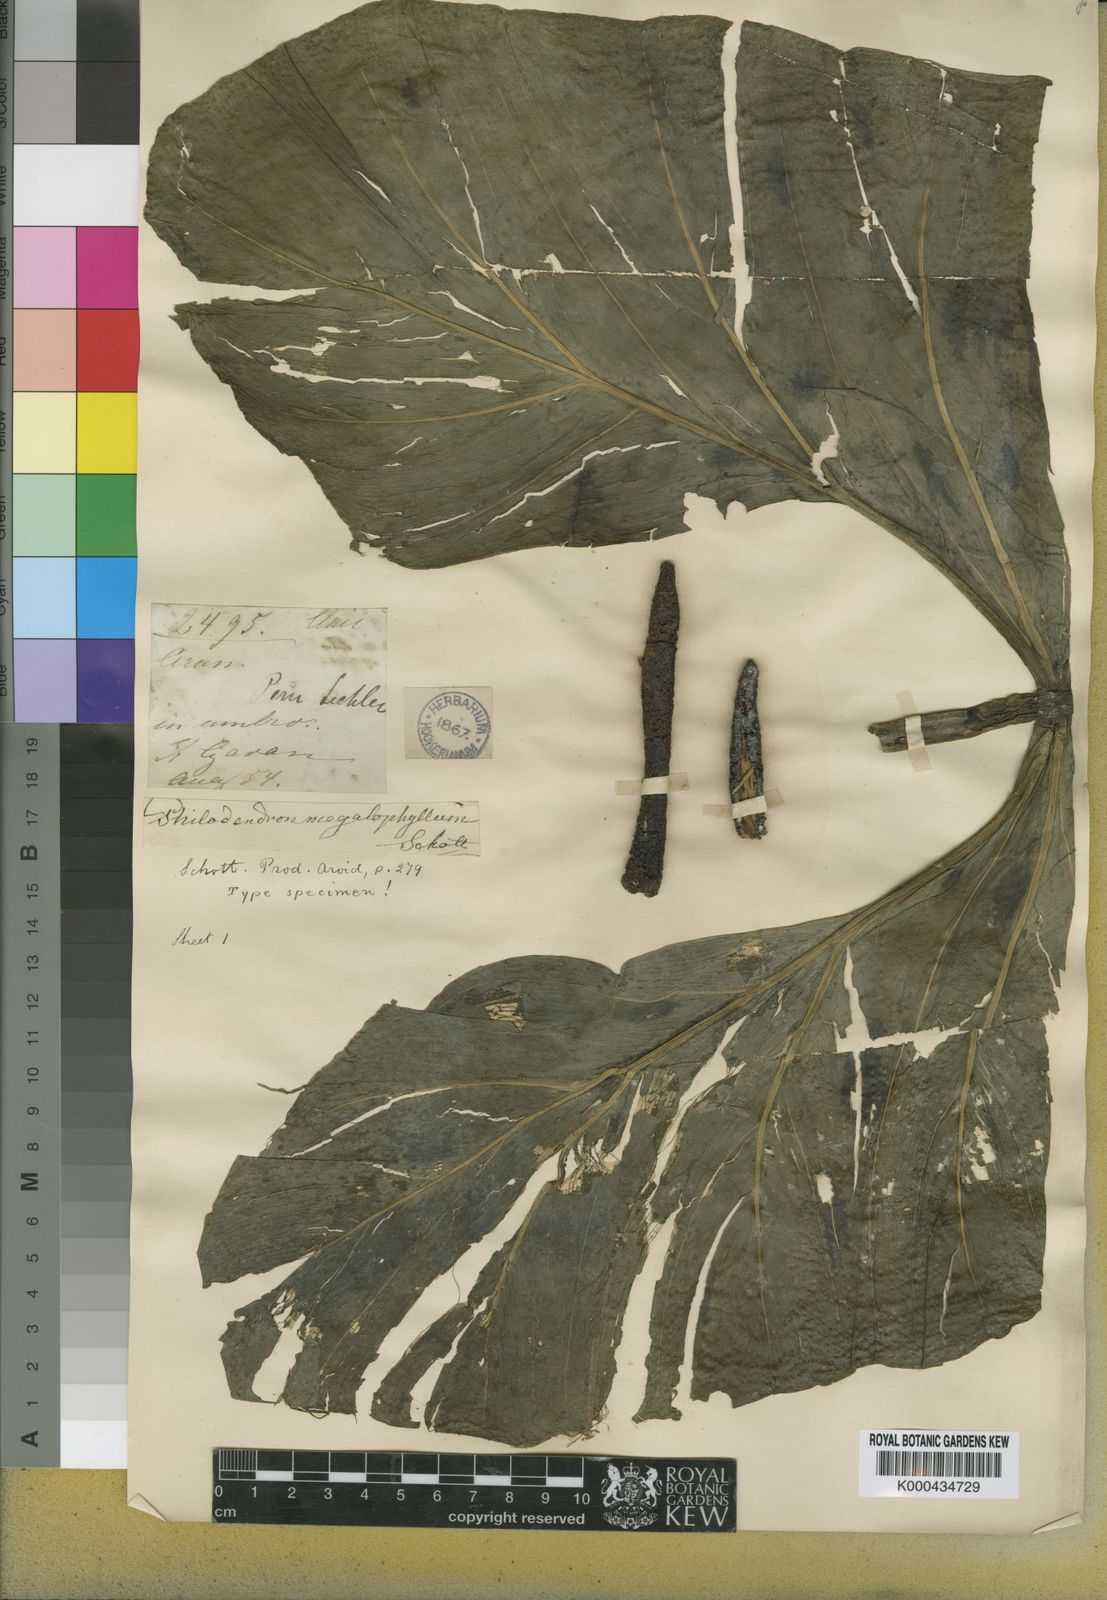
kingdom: Plantae
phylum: Tracheophyta
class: Liliopsida
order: Alismatales
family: Araceae
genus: Philodendron
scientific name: Philodendron deflexum
